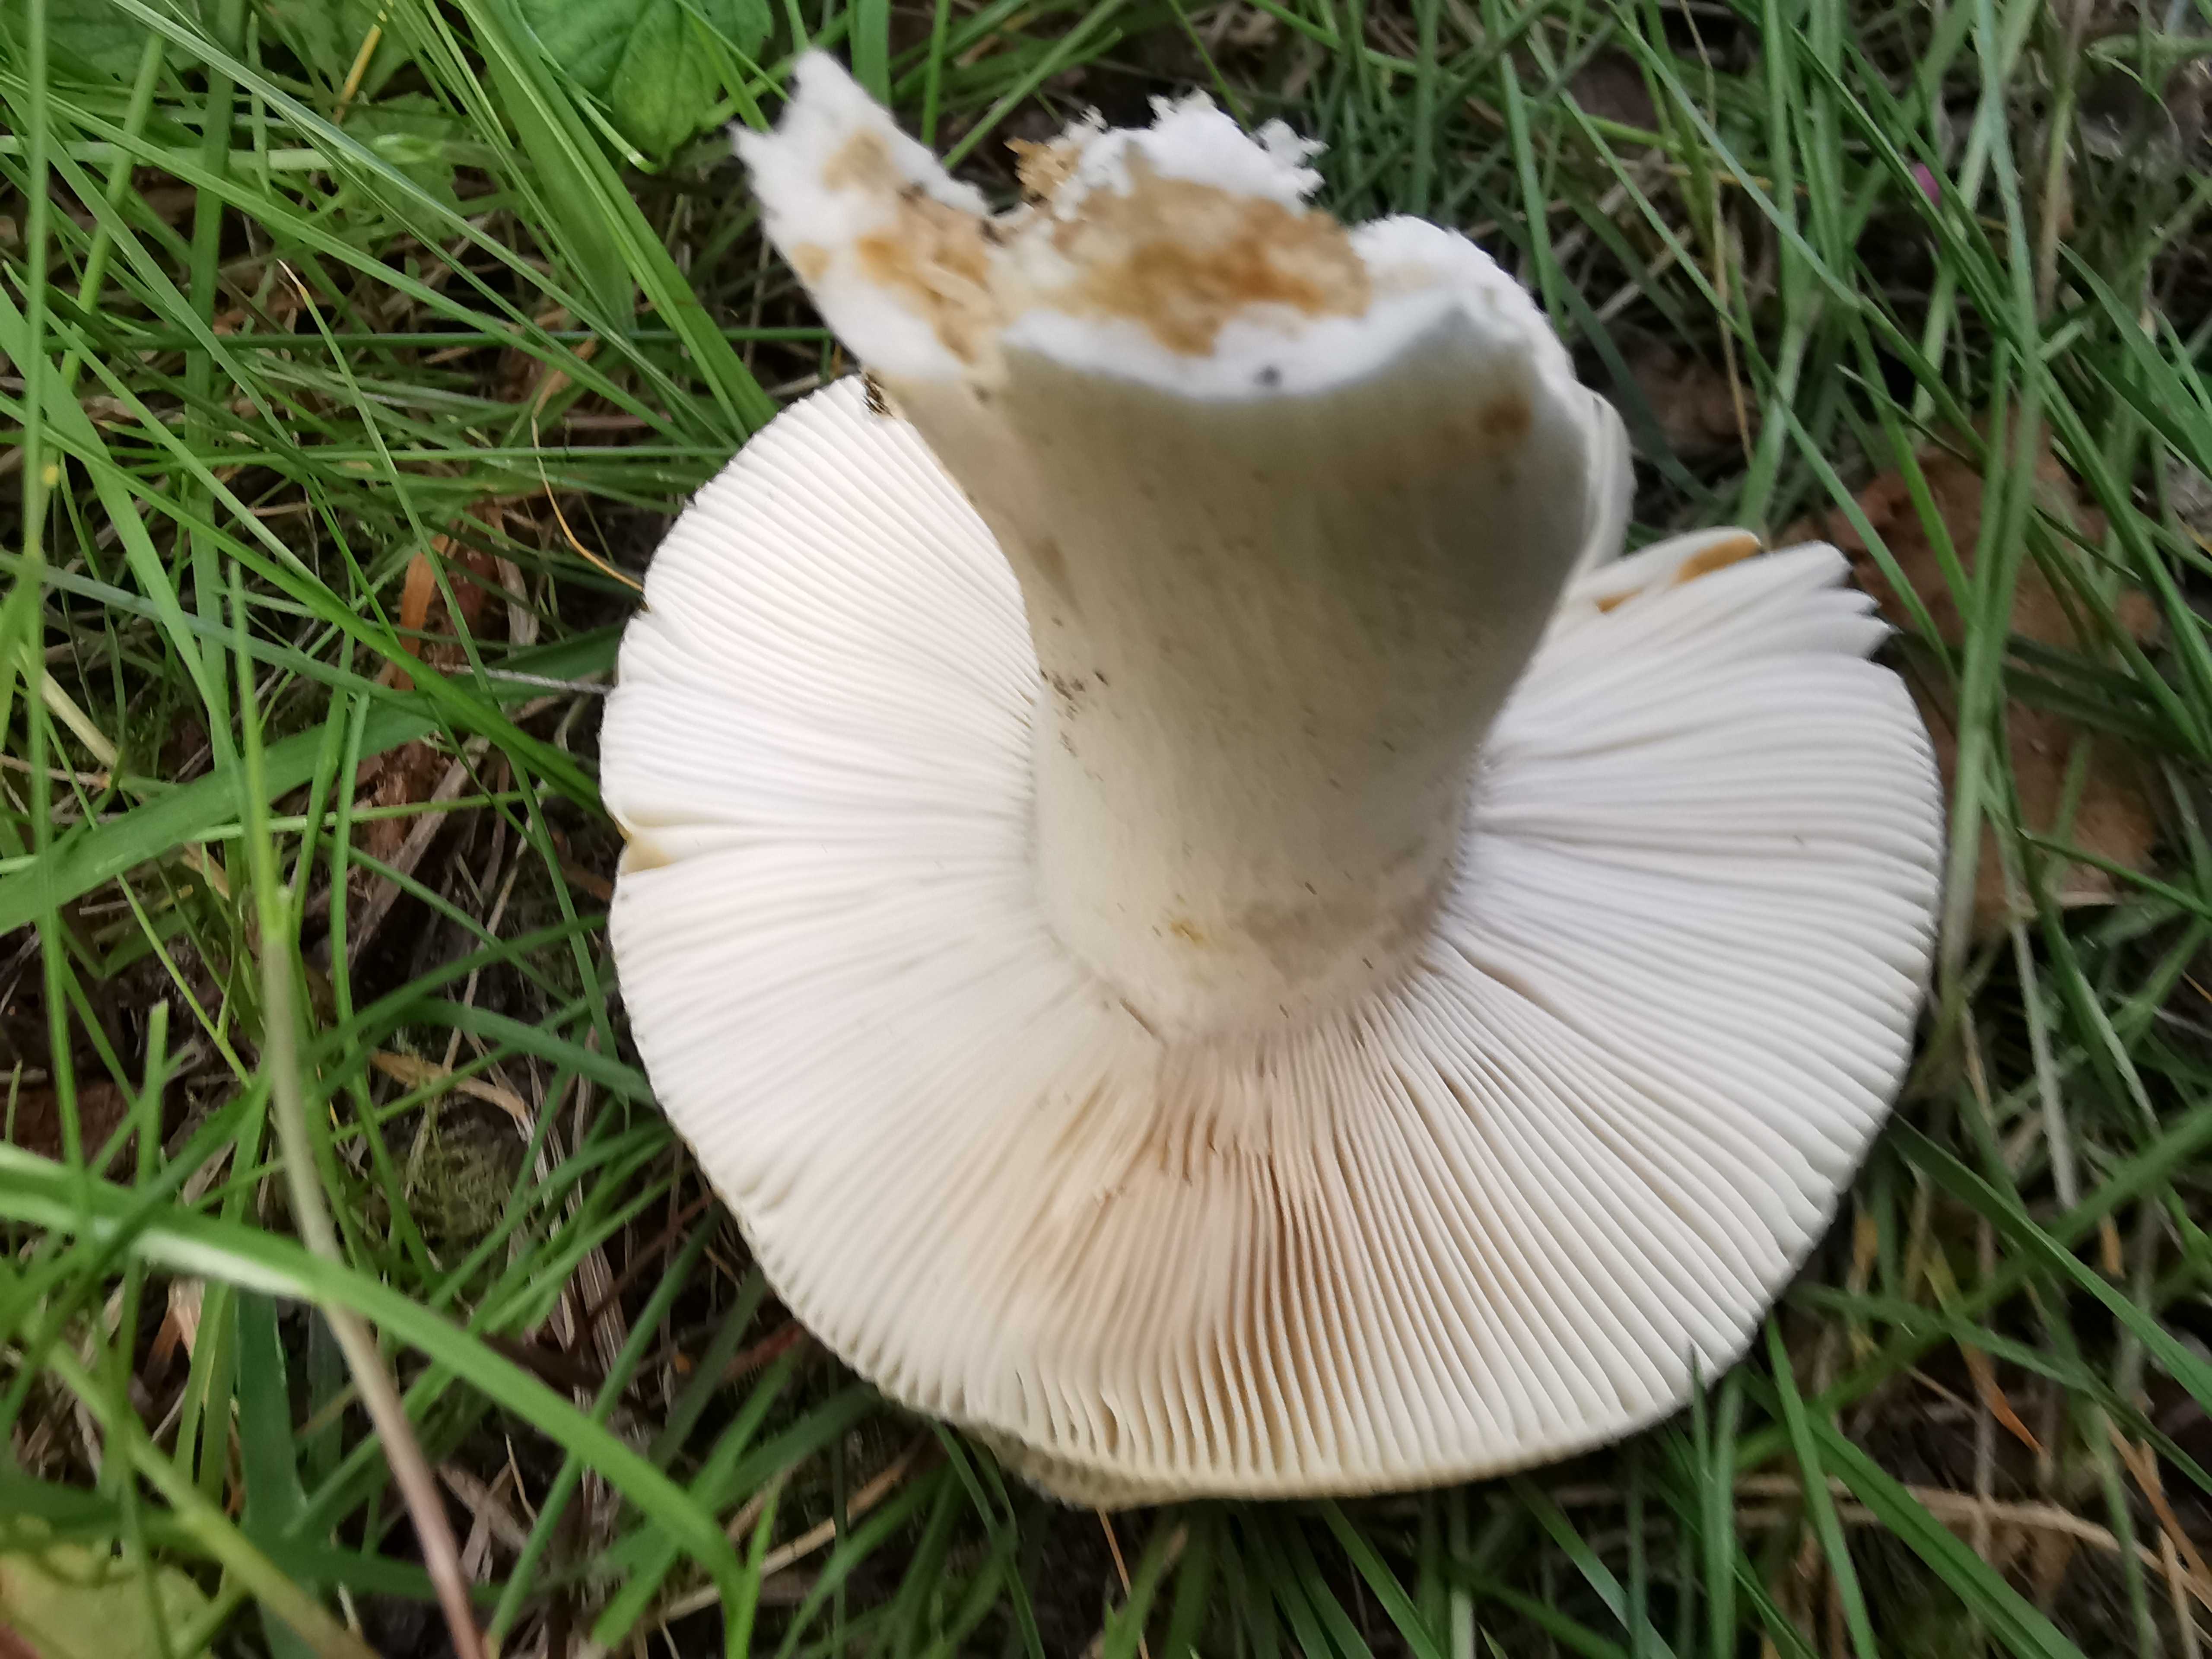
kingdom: Fungi
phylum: Basidiomycota
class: Agaricomycetes
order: Russulales
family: Russulaceae
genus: Russula
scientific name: Russula aeruginea
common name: græsgrøn skørhat
